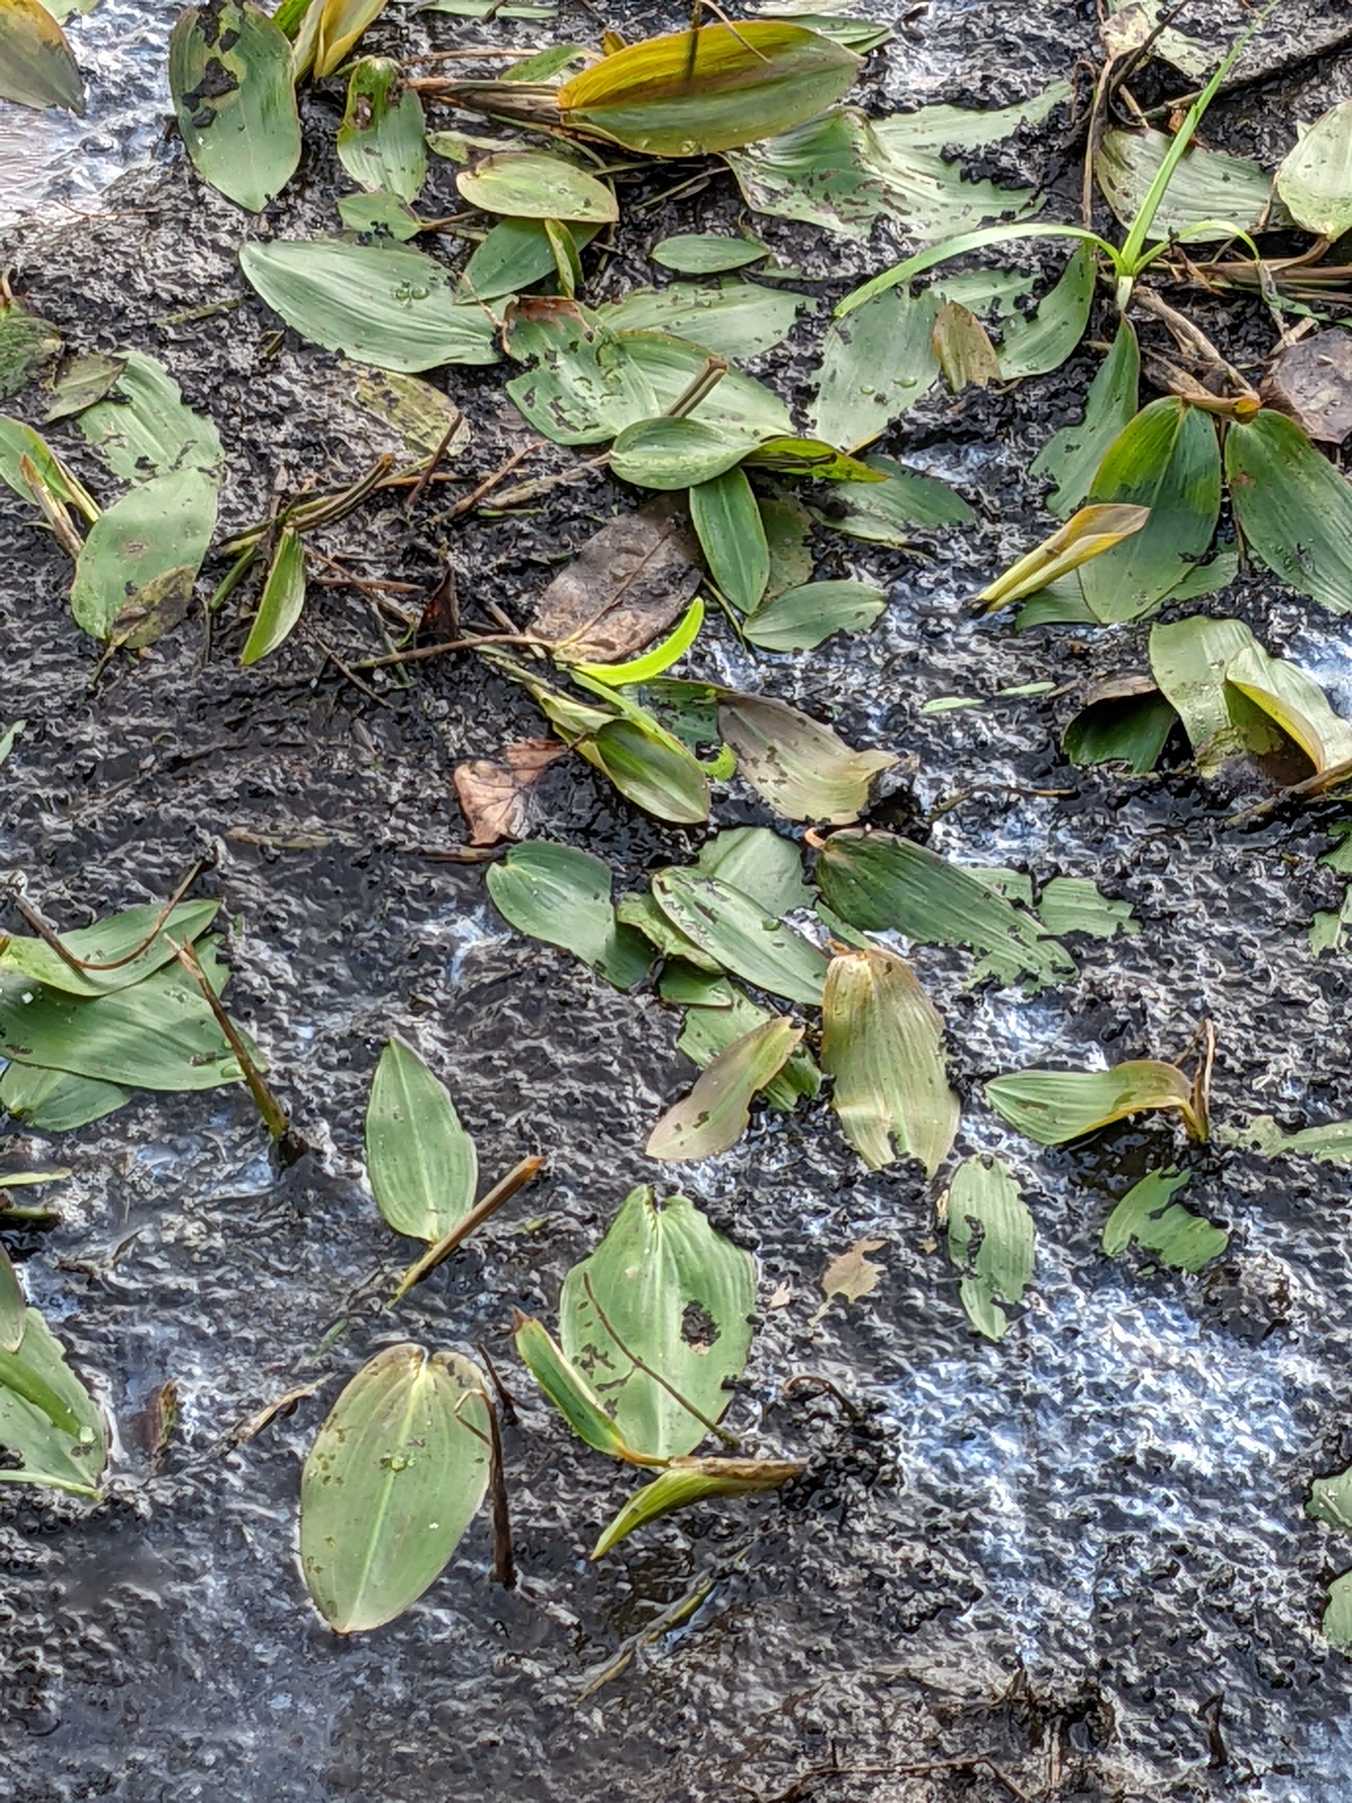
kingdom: Plantae
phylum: Tracheophyta
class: Liliopsida
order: Alismatales
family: Potamogetonaceae
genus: Potamogeton
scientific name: Potamogeton natans
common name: Svømmende vandaks
